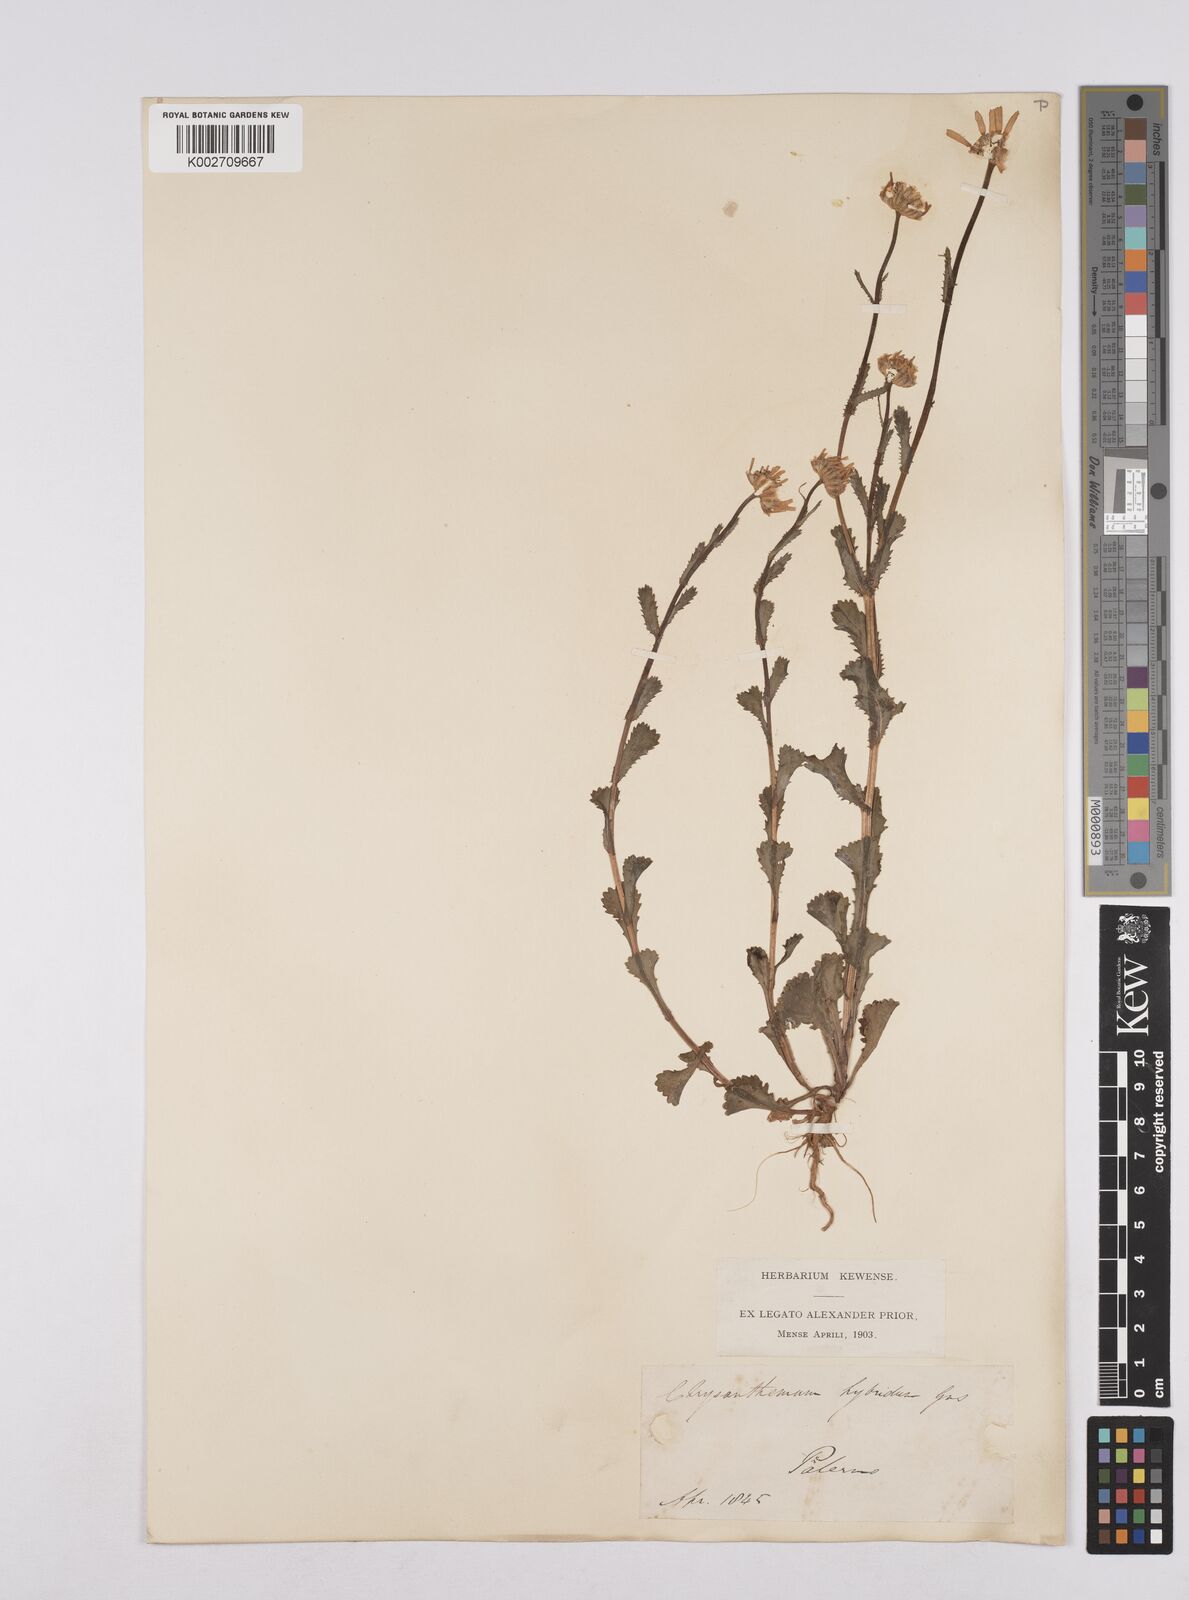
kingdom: Plantae
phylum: Tracheophyta
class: Magnoliopsida
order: Asterales
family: Asteraceae
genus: Coleostephus
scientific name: Coleostephus paludosus
